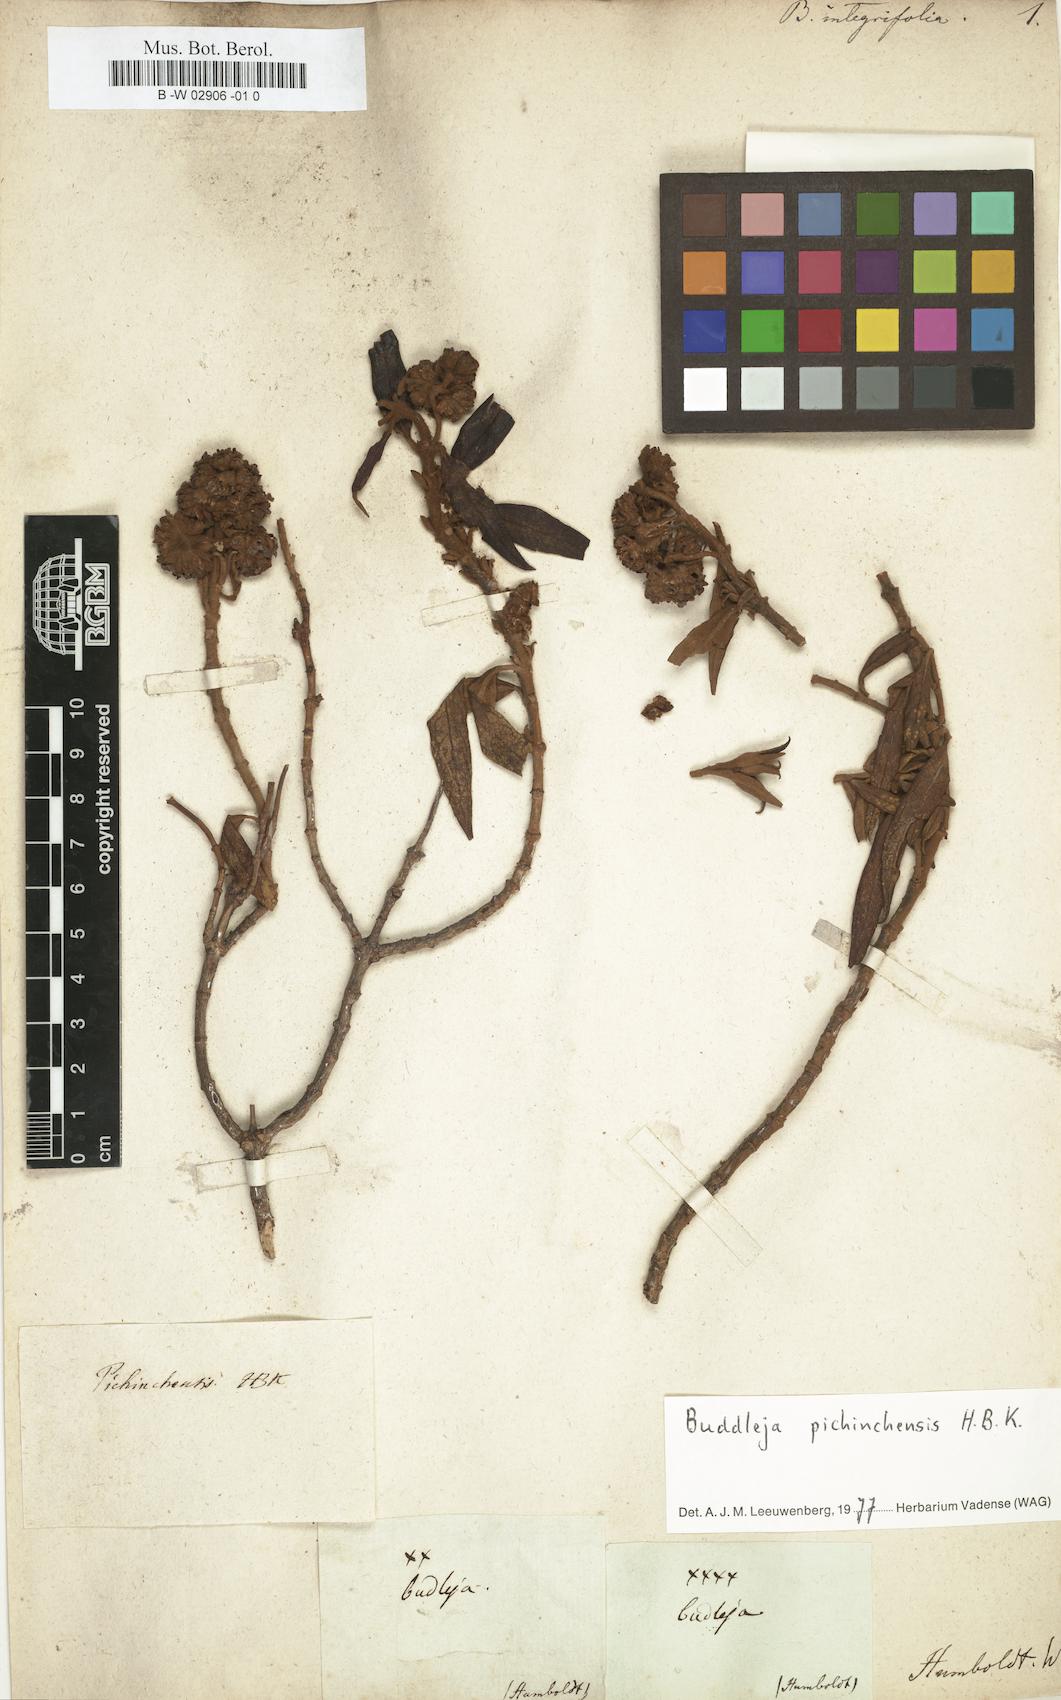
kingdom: Plantae
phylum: Tracheophyta
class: Magnoliopsida
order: Lamiales
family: Scrophulariaceae
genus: Buddleja
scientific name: Buddleja parviflora
